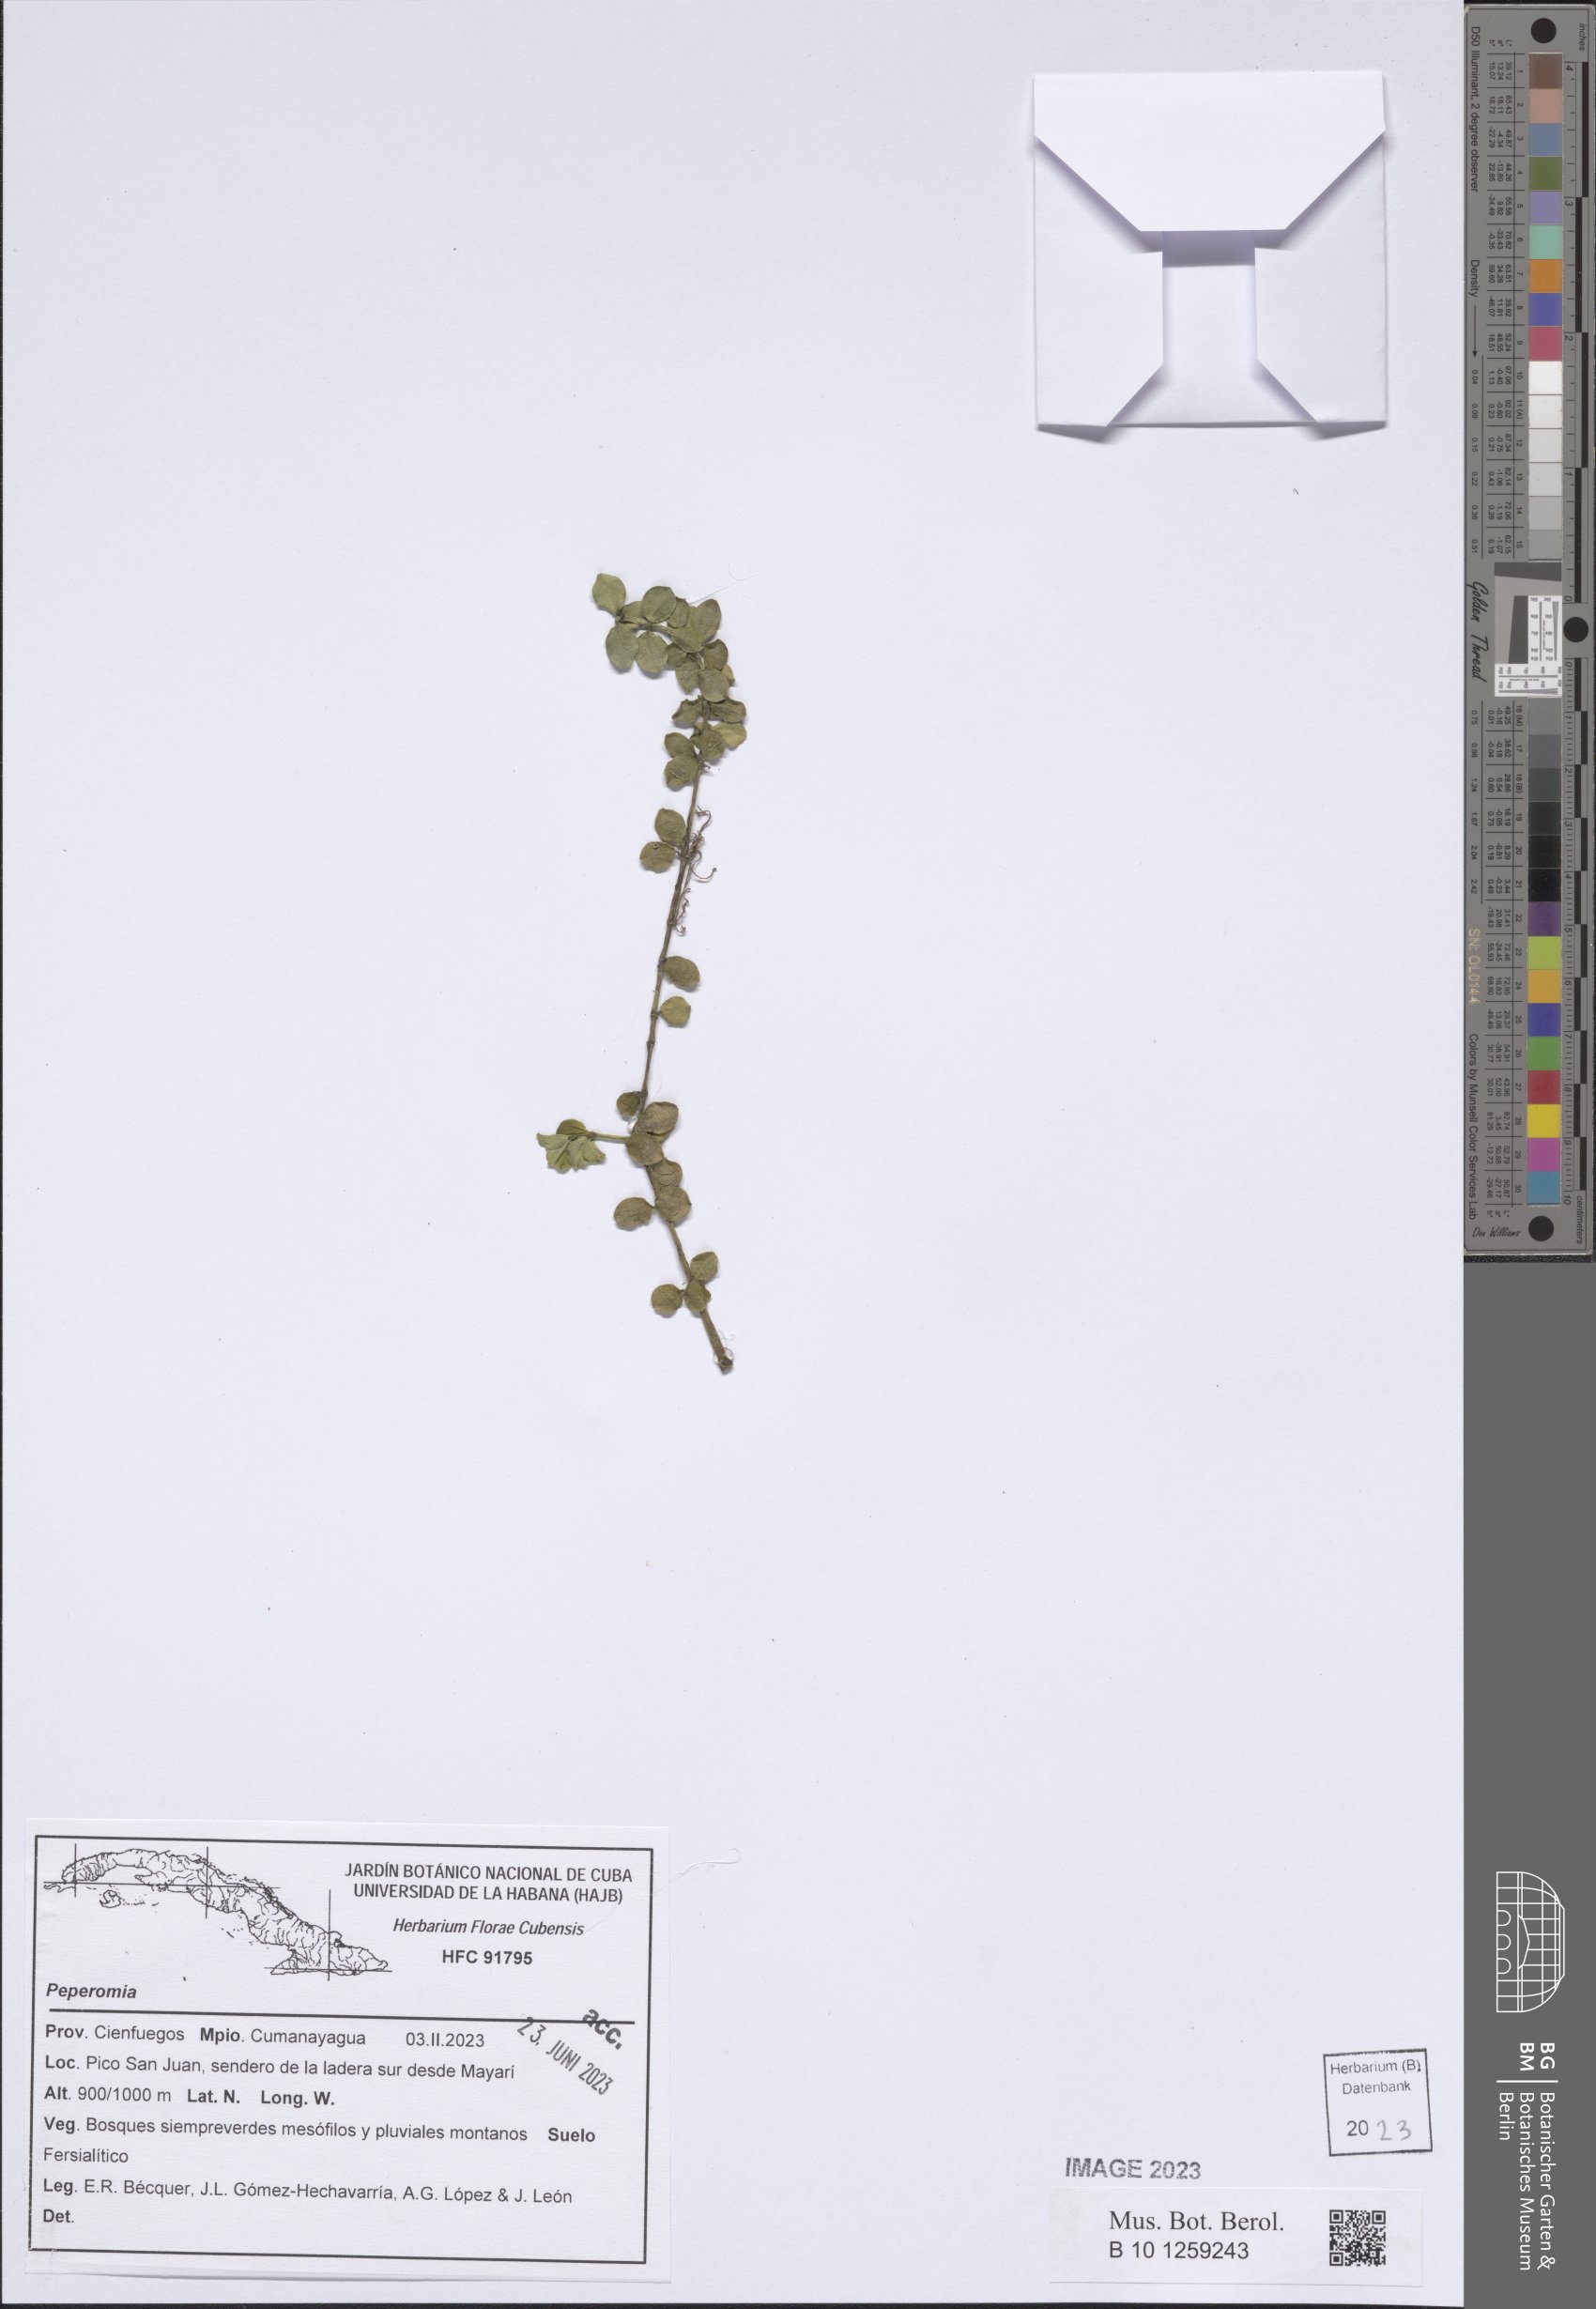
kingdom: Plantae
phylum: Tracheophyta
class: Magnoliopsida
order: Piperales
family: Piperaceae
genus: Peperomia
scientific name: Peperomia
